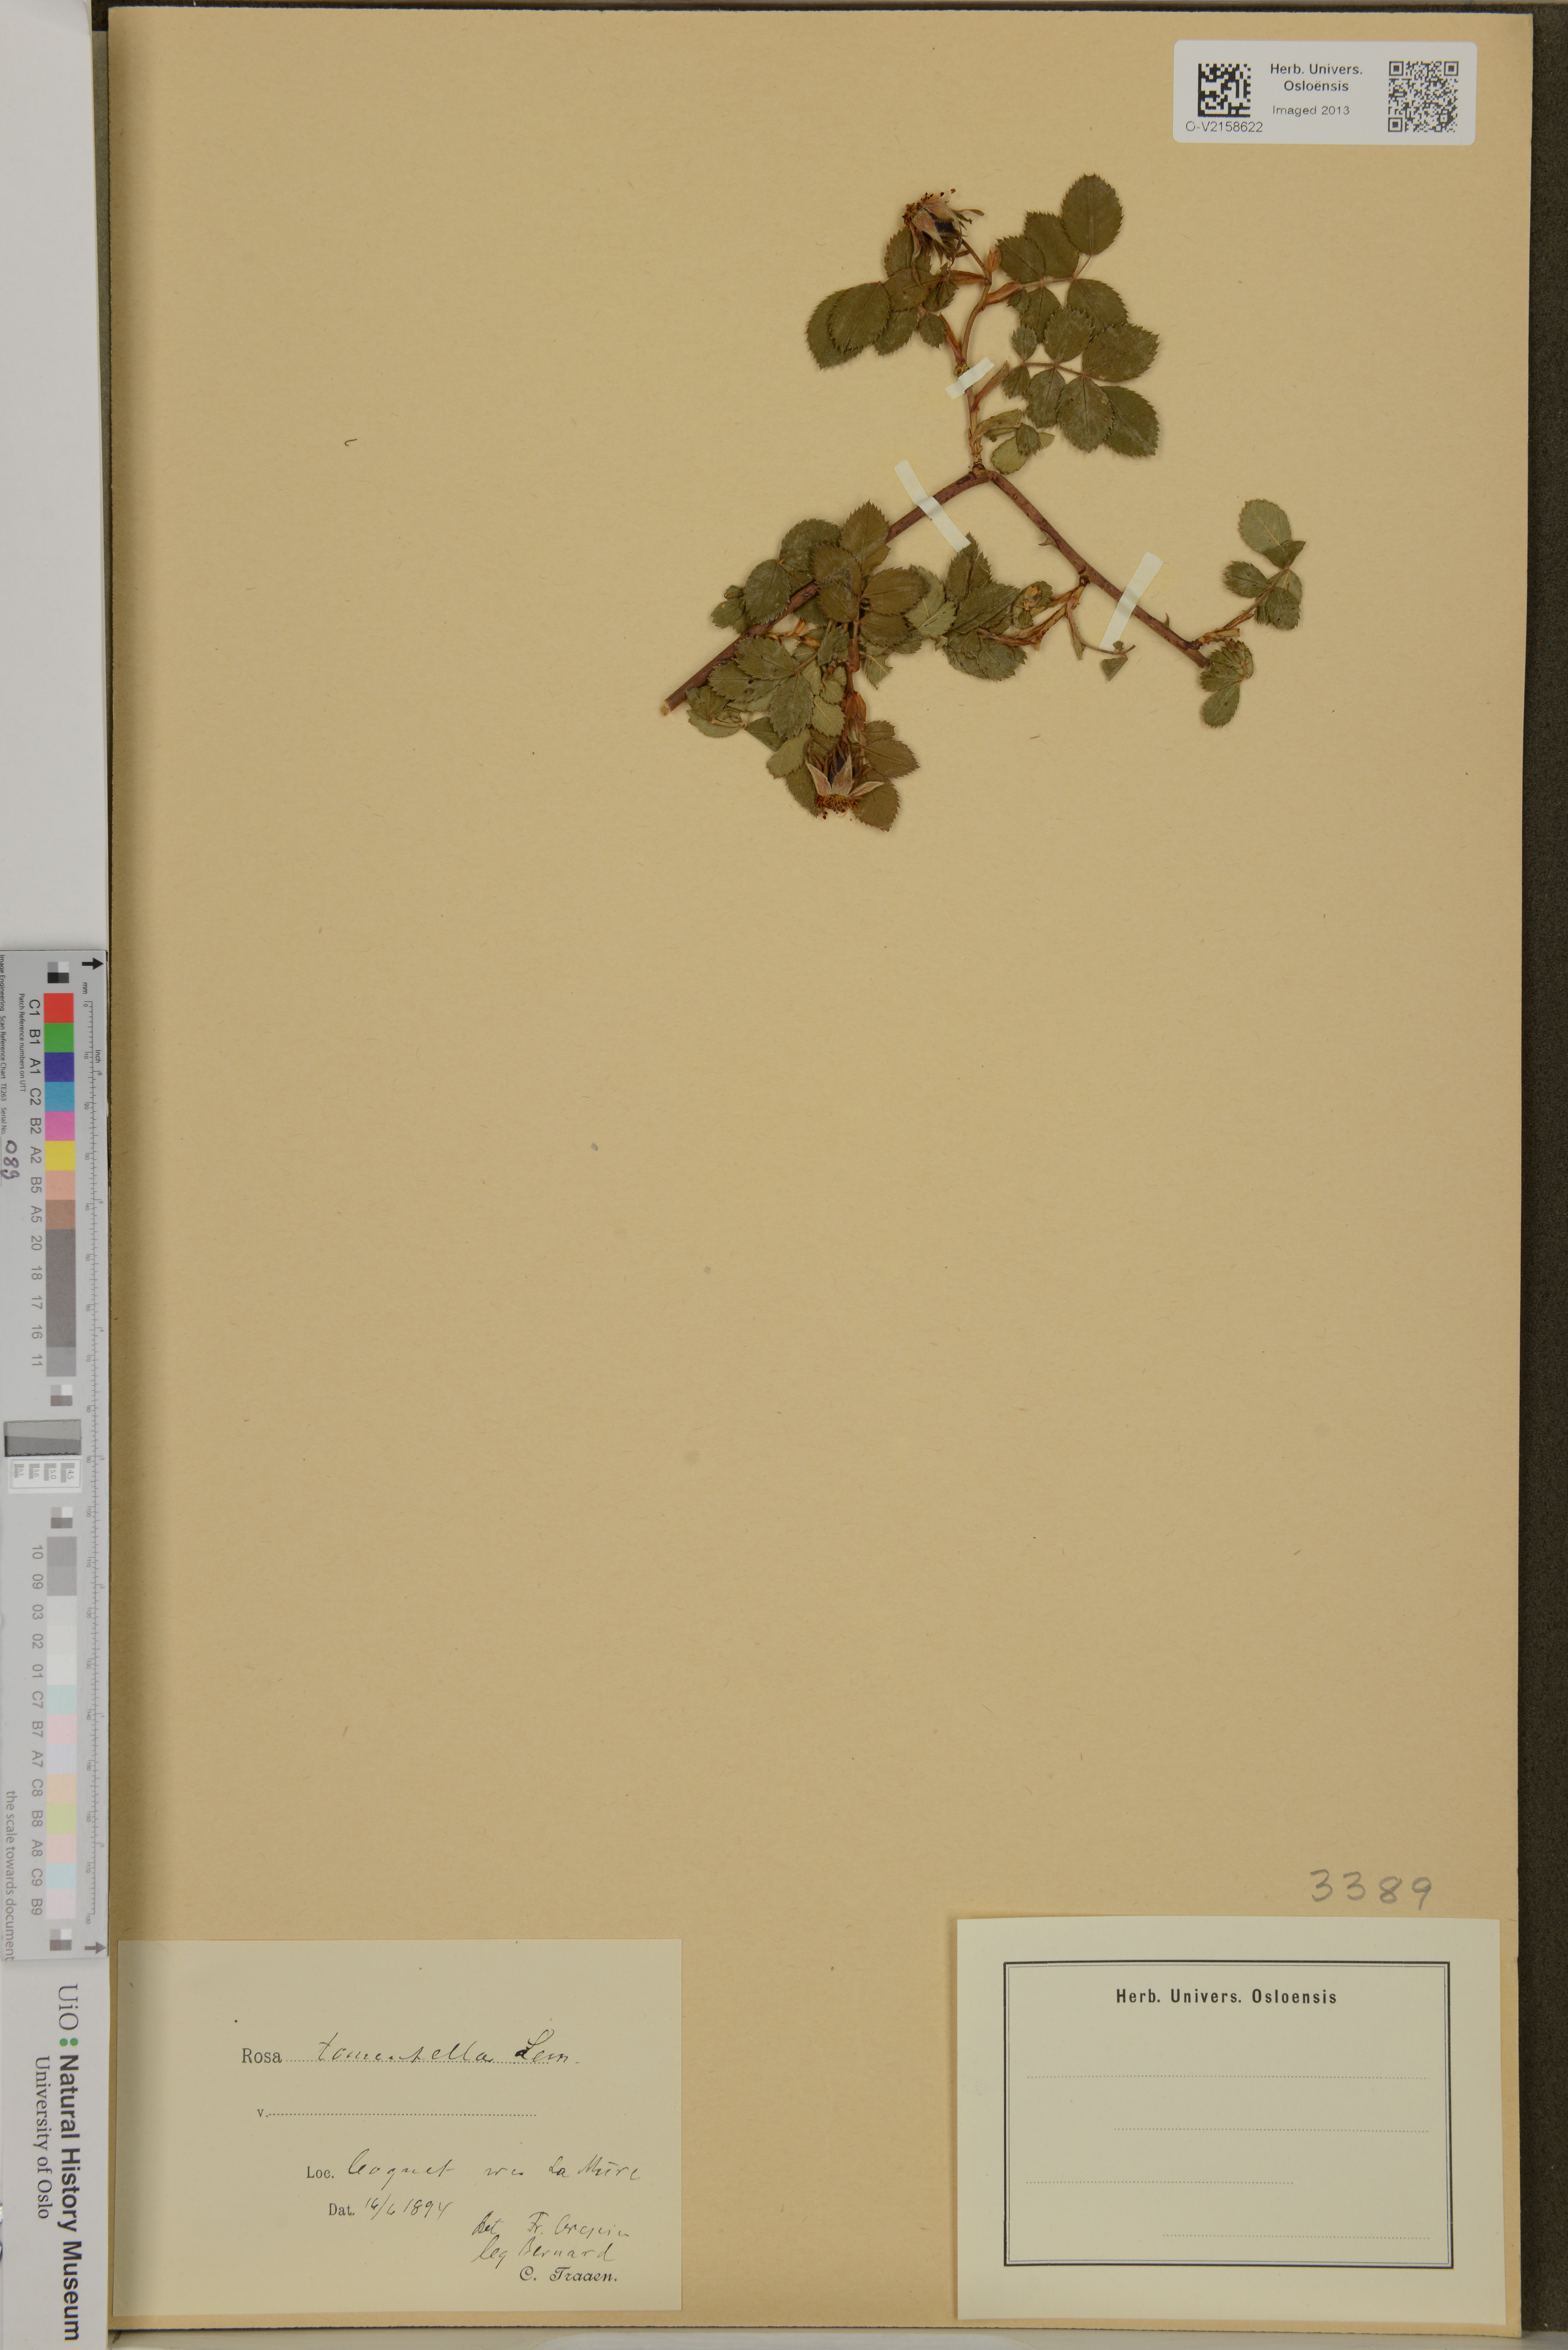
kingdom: Plantae
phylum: Tracheophyta
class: Magnoliopsida
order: Rosales
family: Rosaceae
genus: Rosa
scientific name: Rosa
